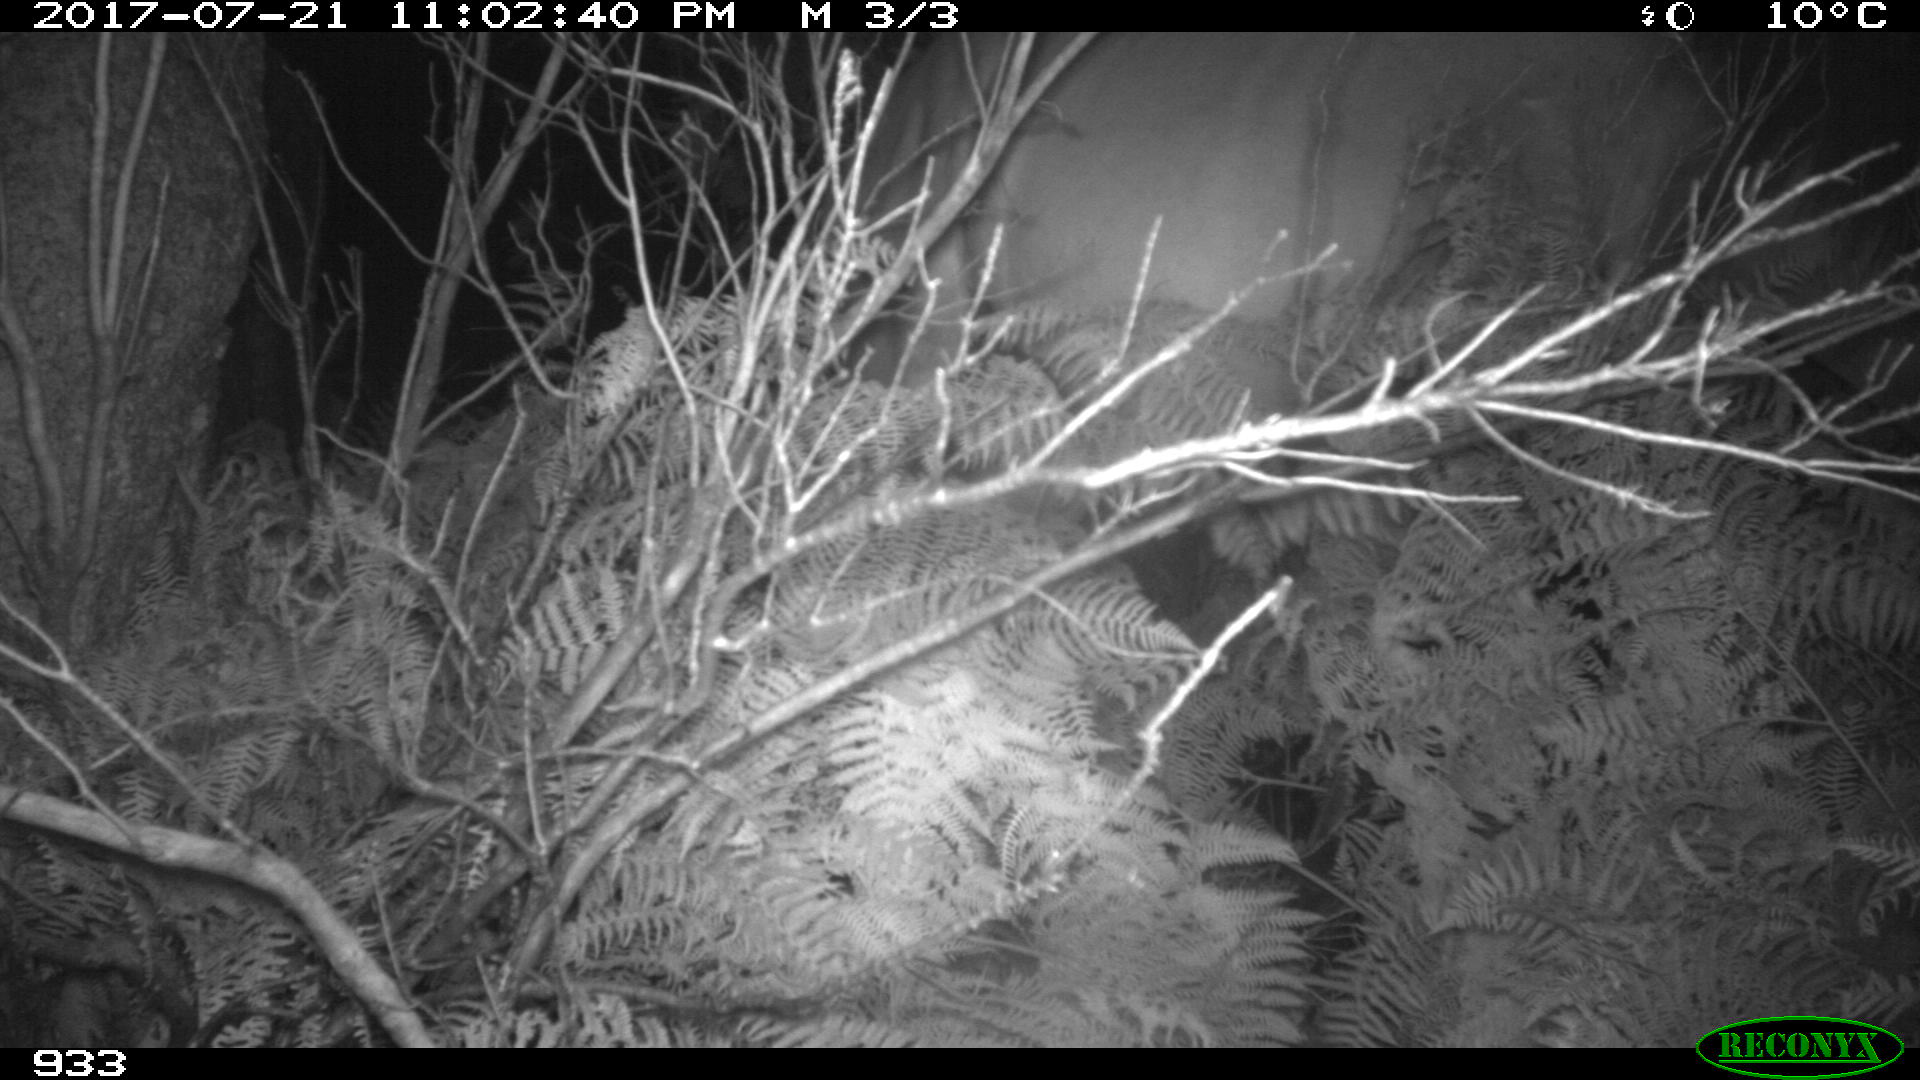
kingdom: Animalia
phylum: Chordata
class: Mammalia
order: Perissodactyla
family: Equidae
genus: Equus
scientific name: Equus caballus
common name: Horse
